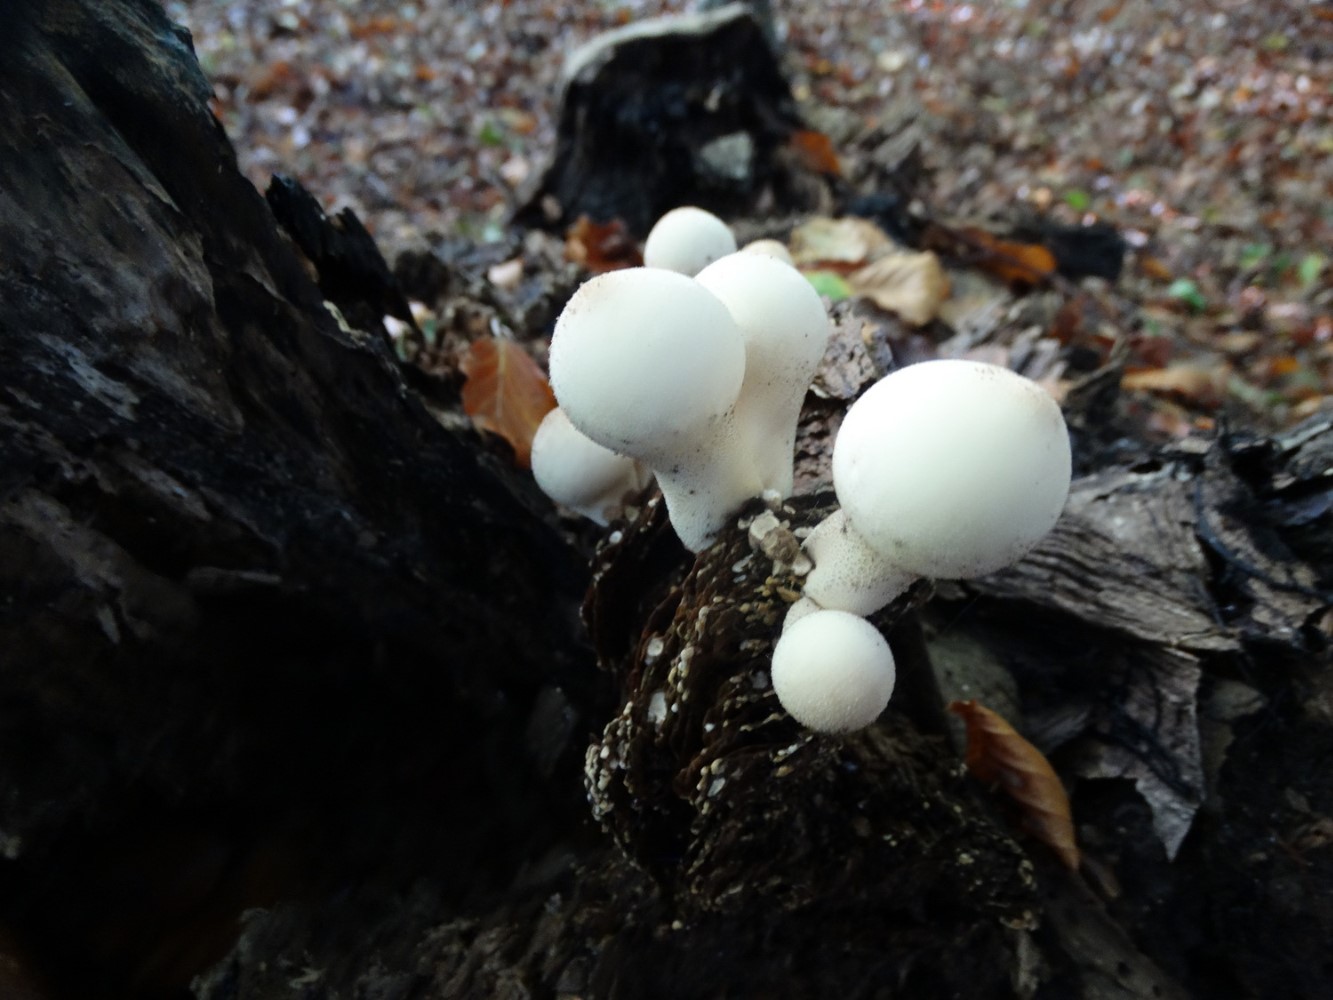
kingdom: Fungi
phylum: Basidiomycota
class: Agaricomycetes
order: Agaricales
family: Lycoperdaceae
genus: Apioperdon
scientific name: Apioperdon pyriforme
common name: pære-støvbold
